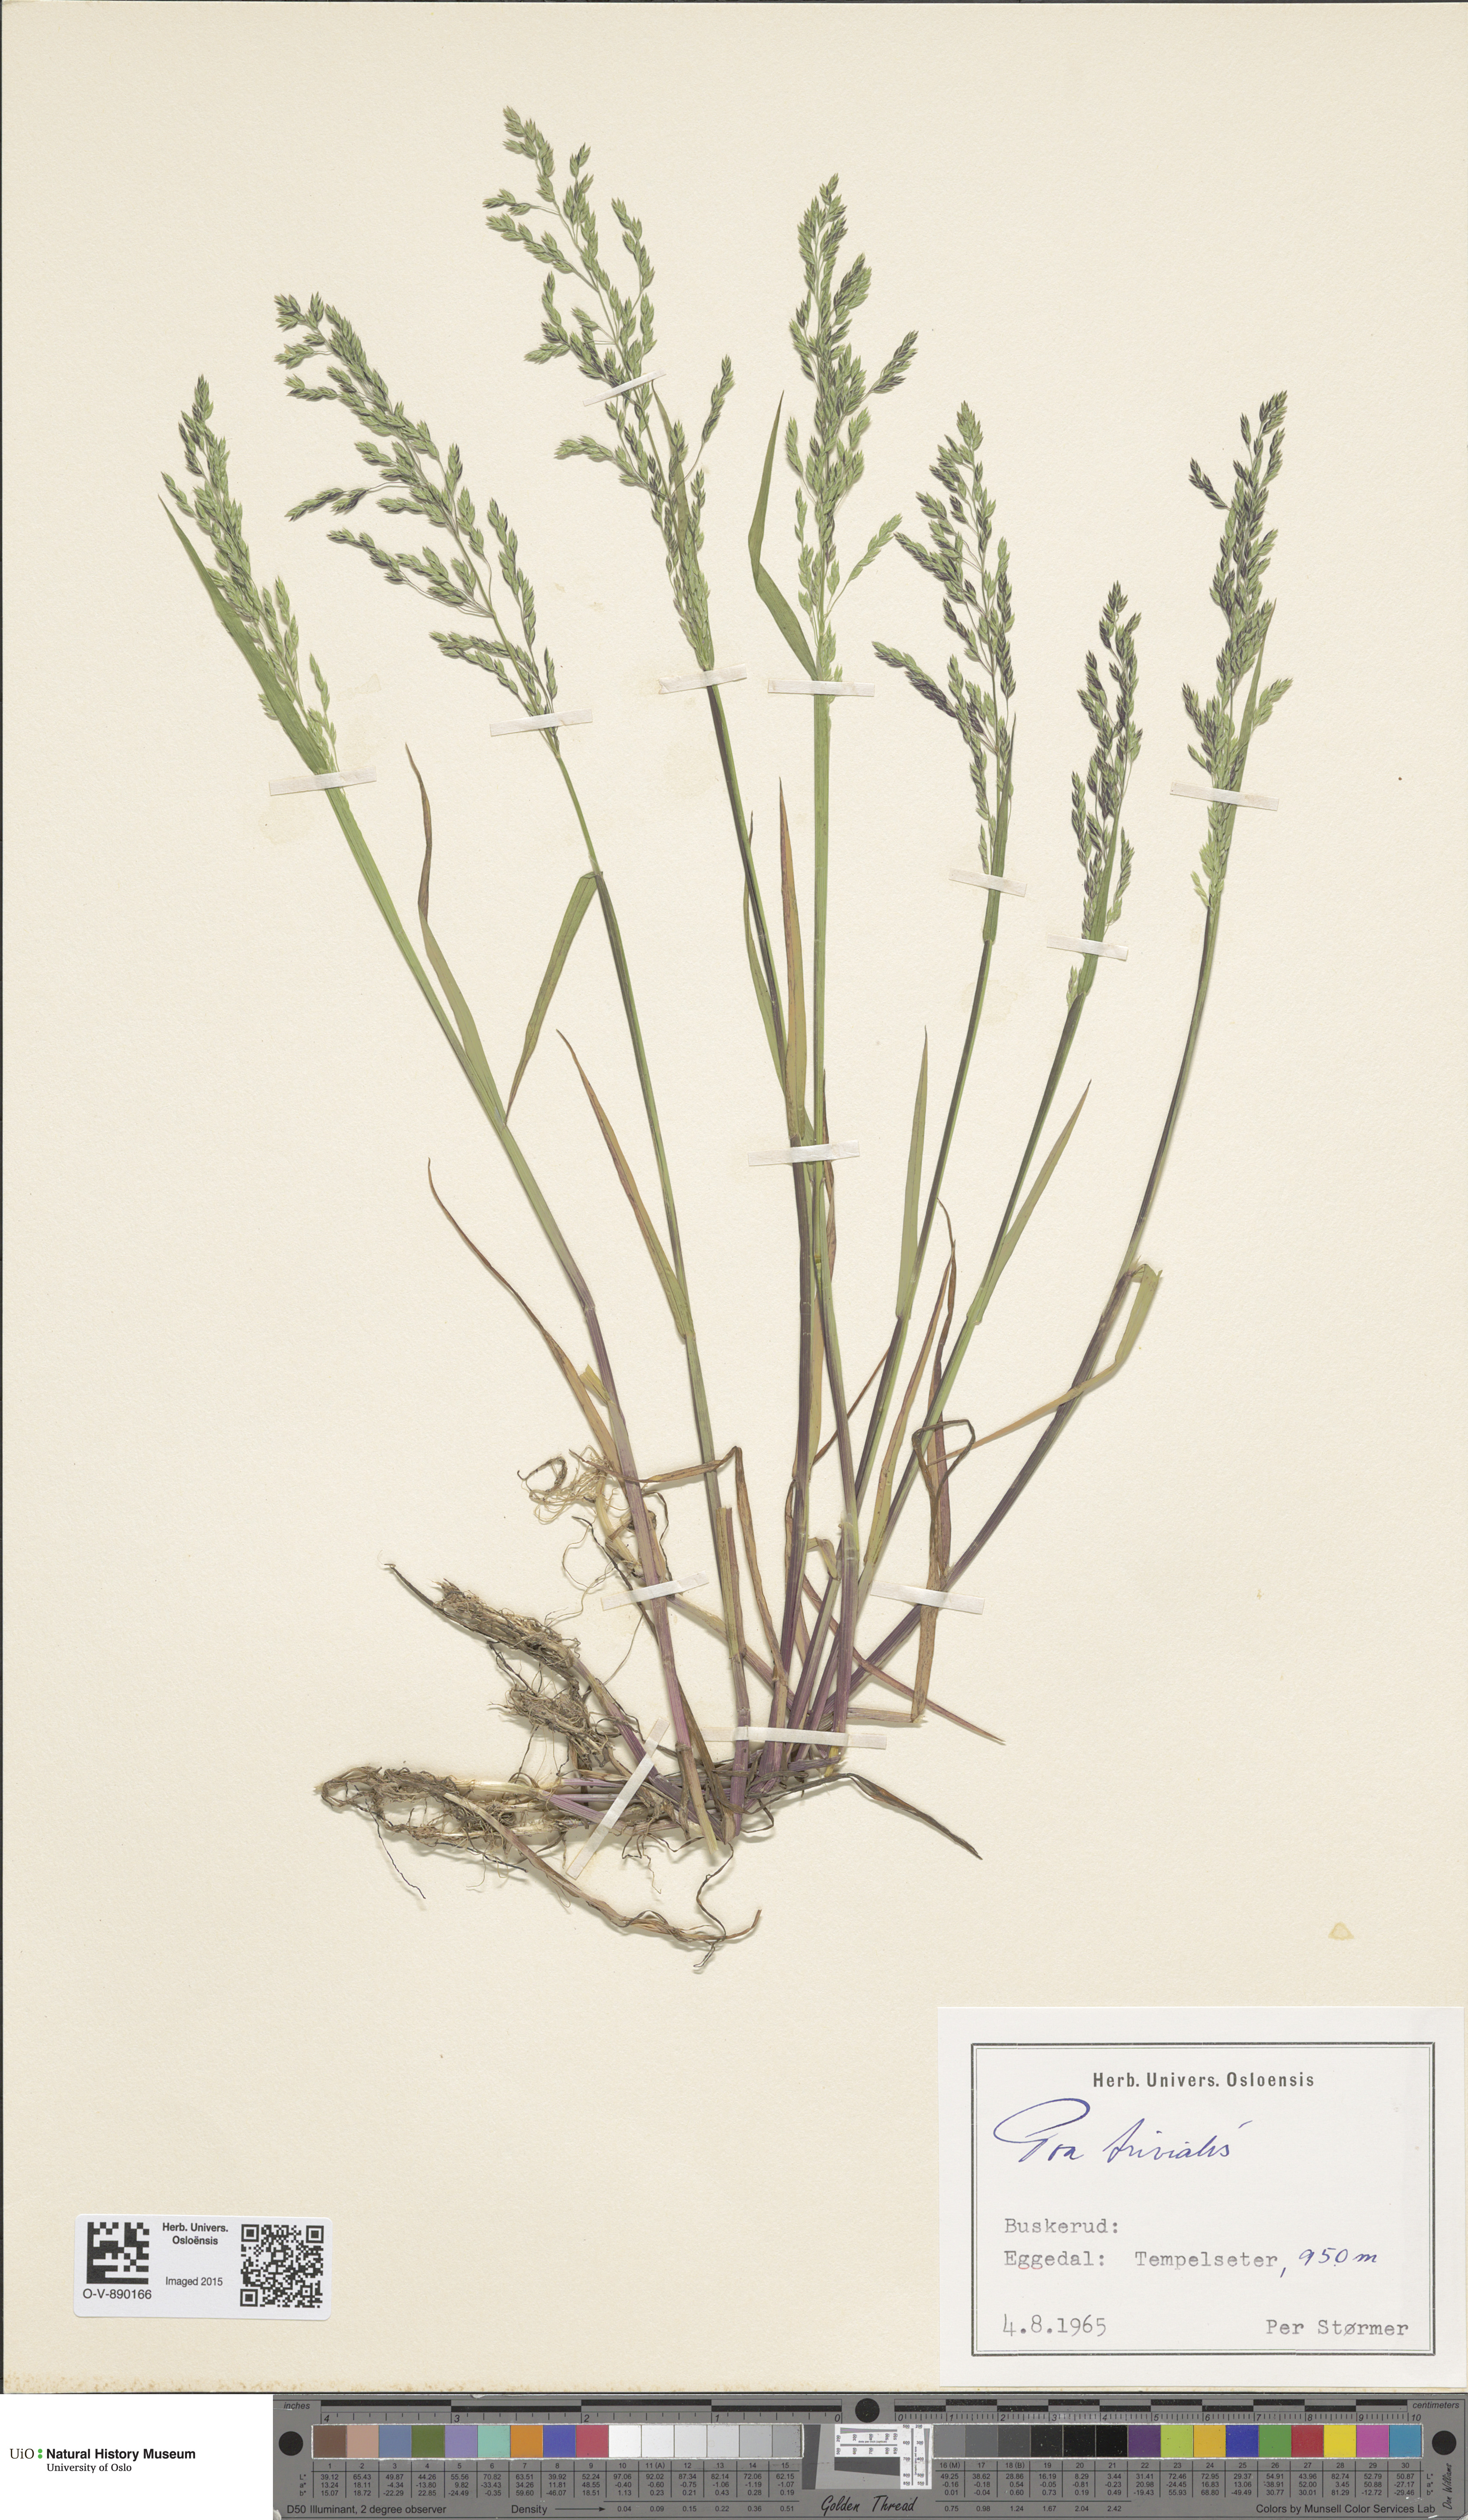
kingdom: Plantae
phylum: Tracheophyta
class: Liliopsida
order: Poales
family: Poaceae
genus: Poa
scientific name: Poa trivialis
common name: Rough bluegrass
